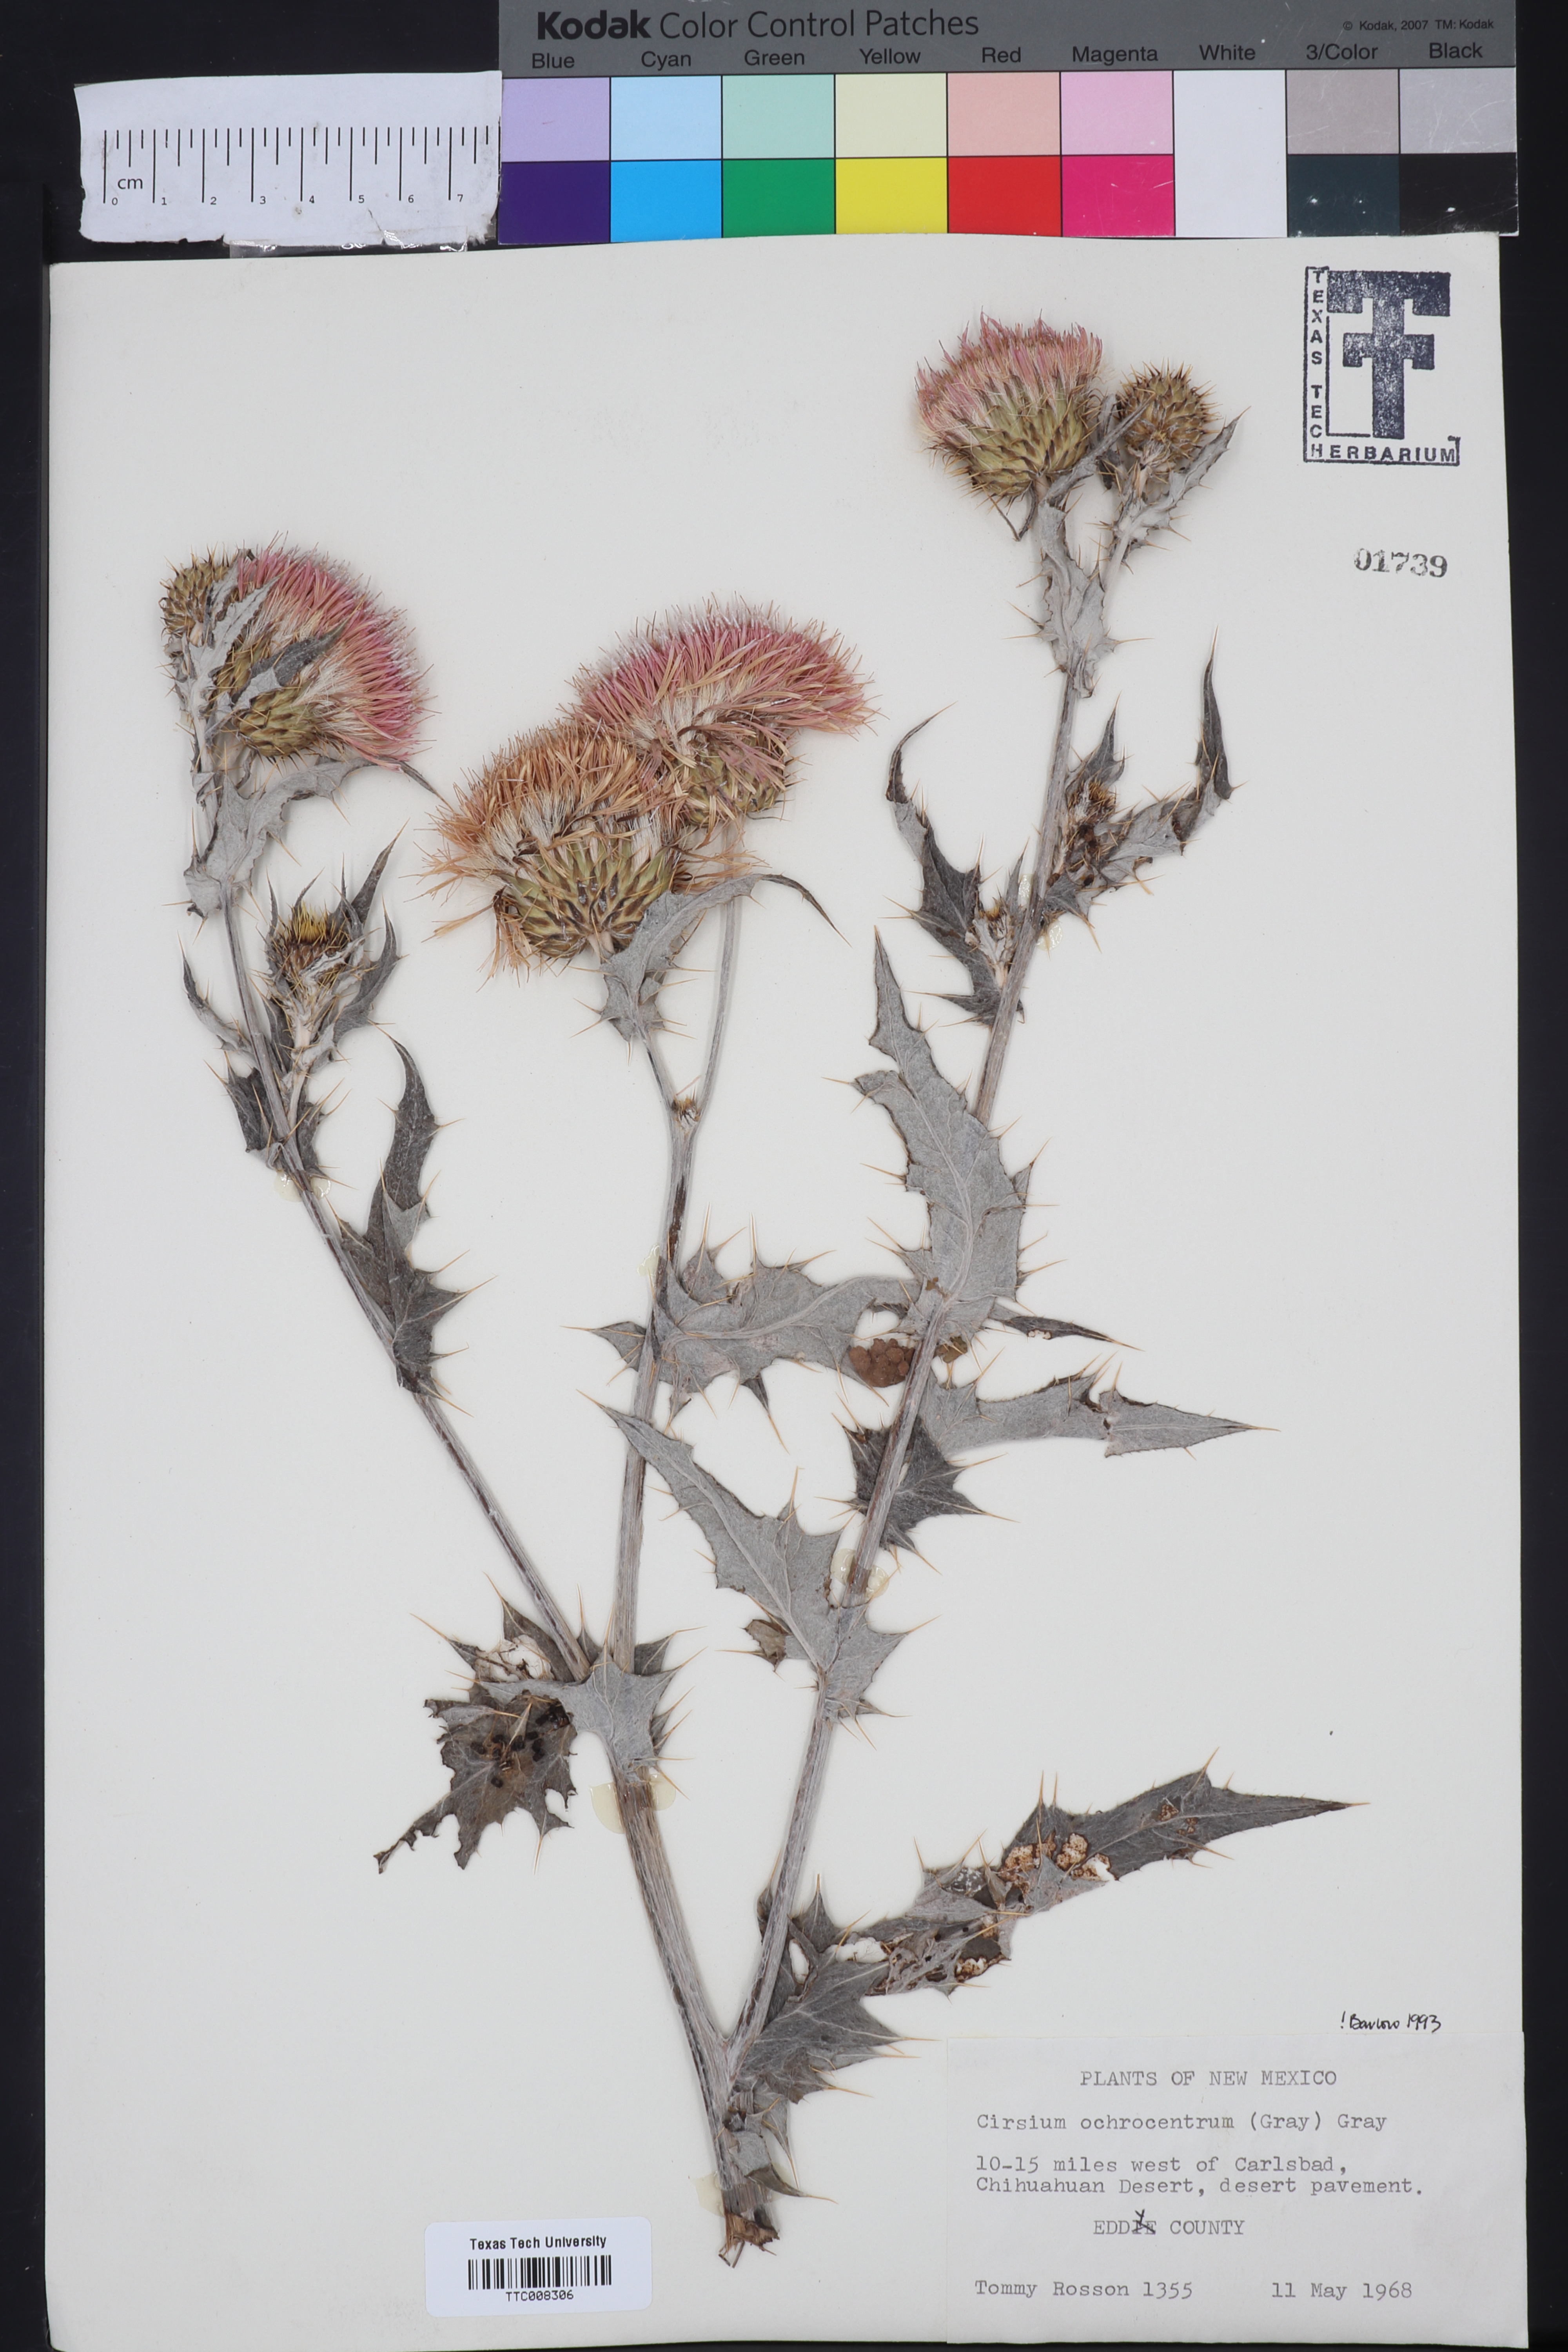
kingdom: Plantae
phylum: Tracheophyta
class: Magnoliopsida
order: Asterales
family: Asteraceae
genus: Cirsium
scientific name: Cirsium ochrocentrum
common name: Yellow-spine thistle
